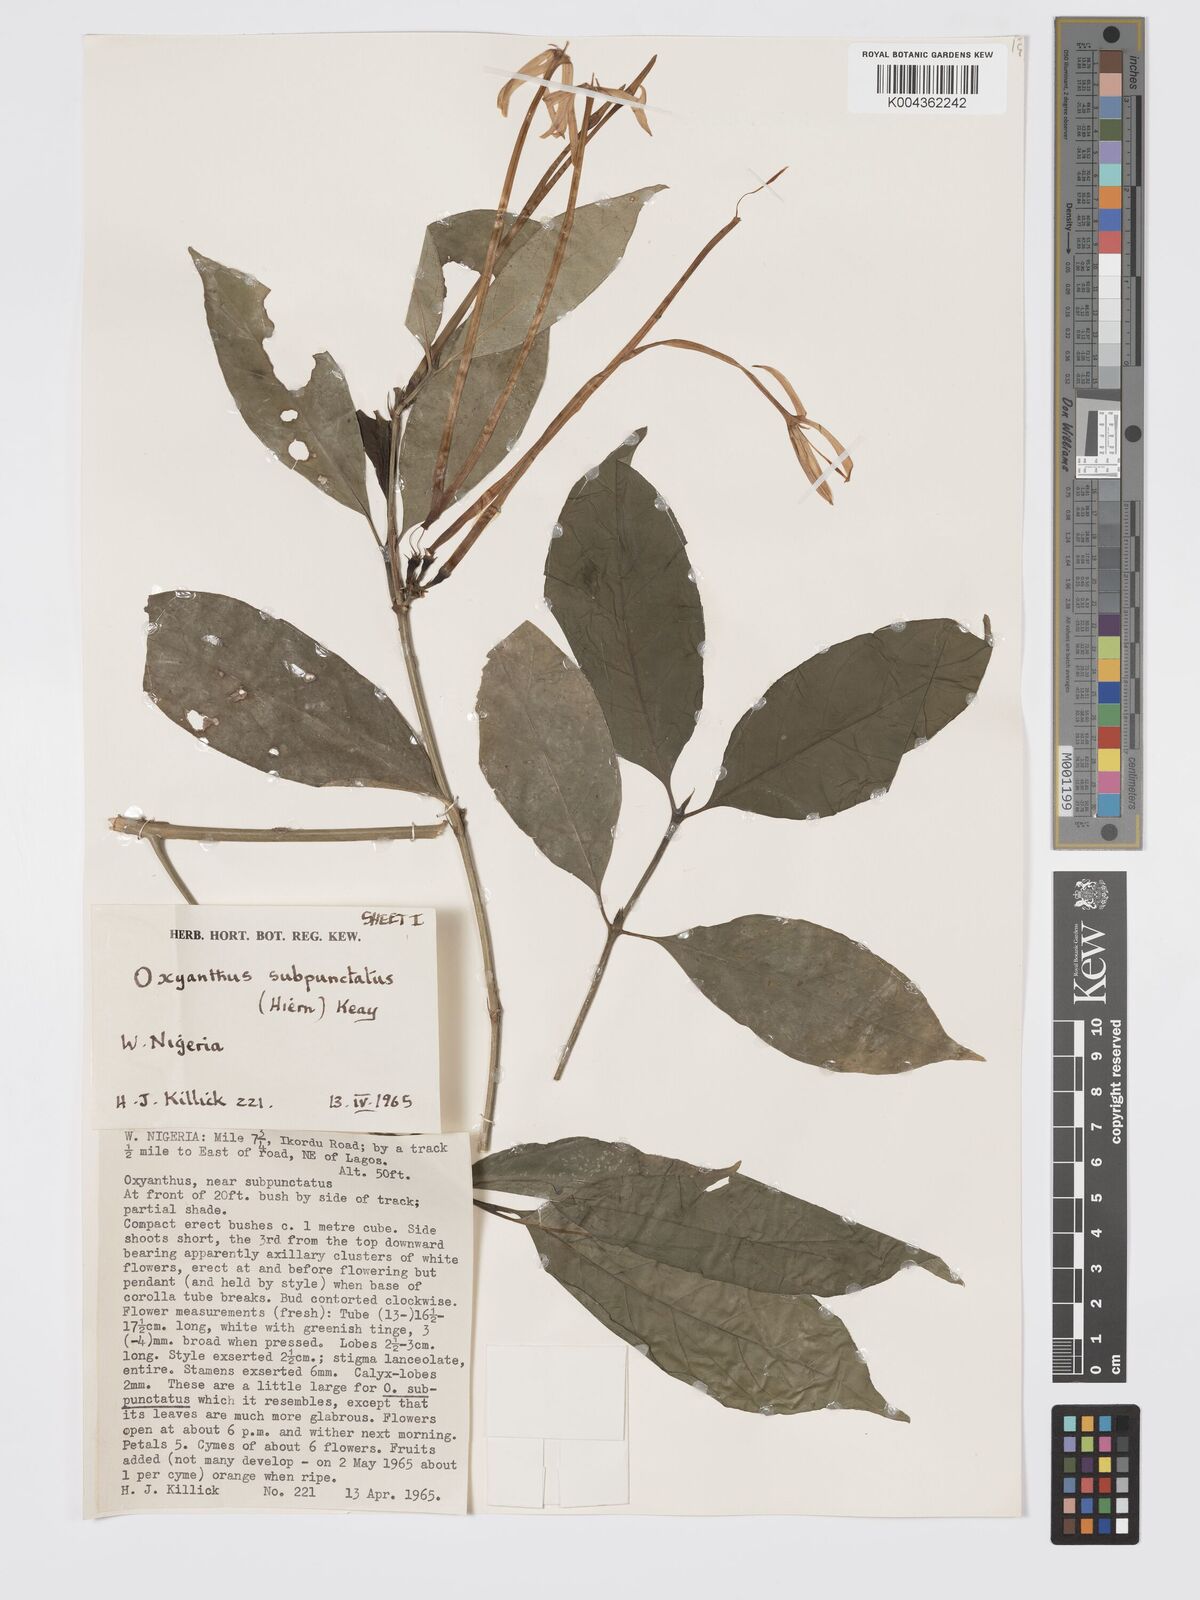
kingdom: Plantae
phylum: Tracheophyta
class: Magnoliopsida
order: Gentianales
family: Rubiaceae
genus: Oxyanthus
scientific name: Oxyanthus subpunctatus
